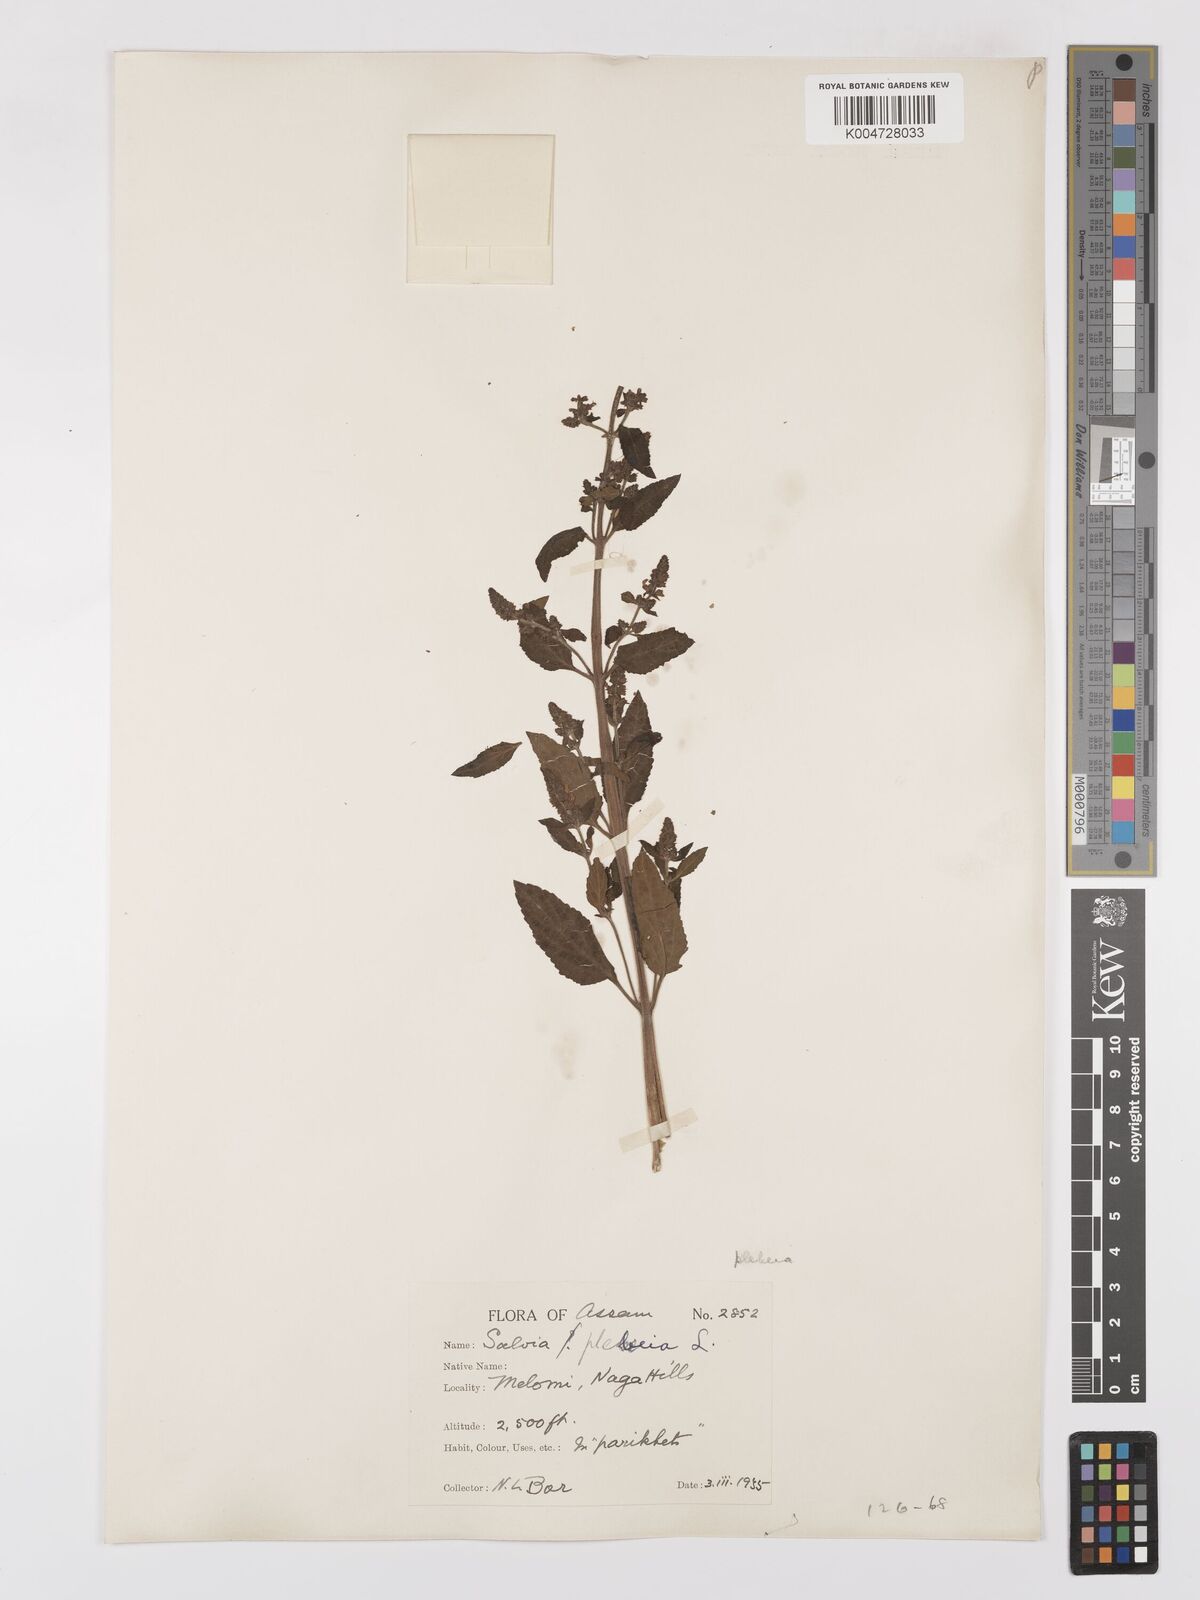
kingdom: Plantae
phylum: Tracheophyta
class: Magnoliopsida
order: Lamiales
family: Lamiaceae
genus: Salvia
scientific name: Salvia plebeia
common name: Australian sage
